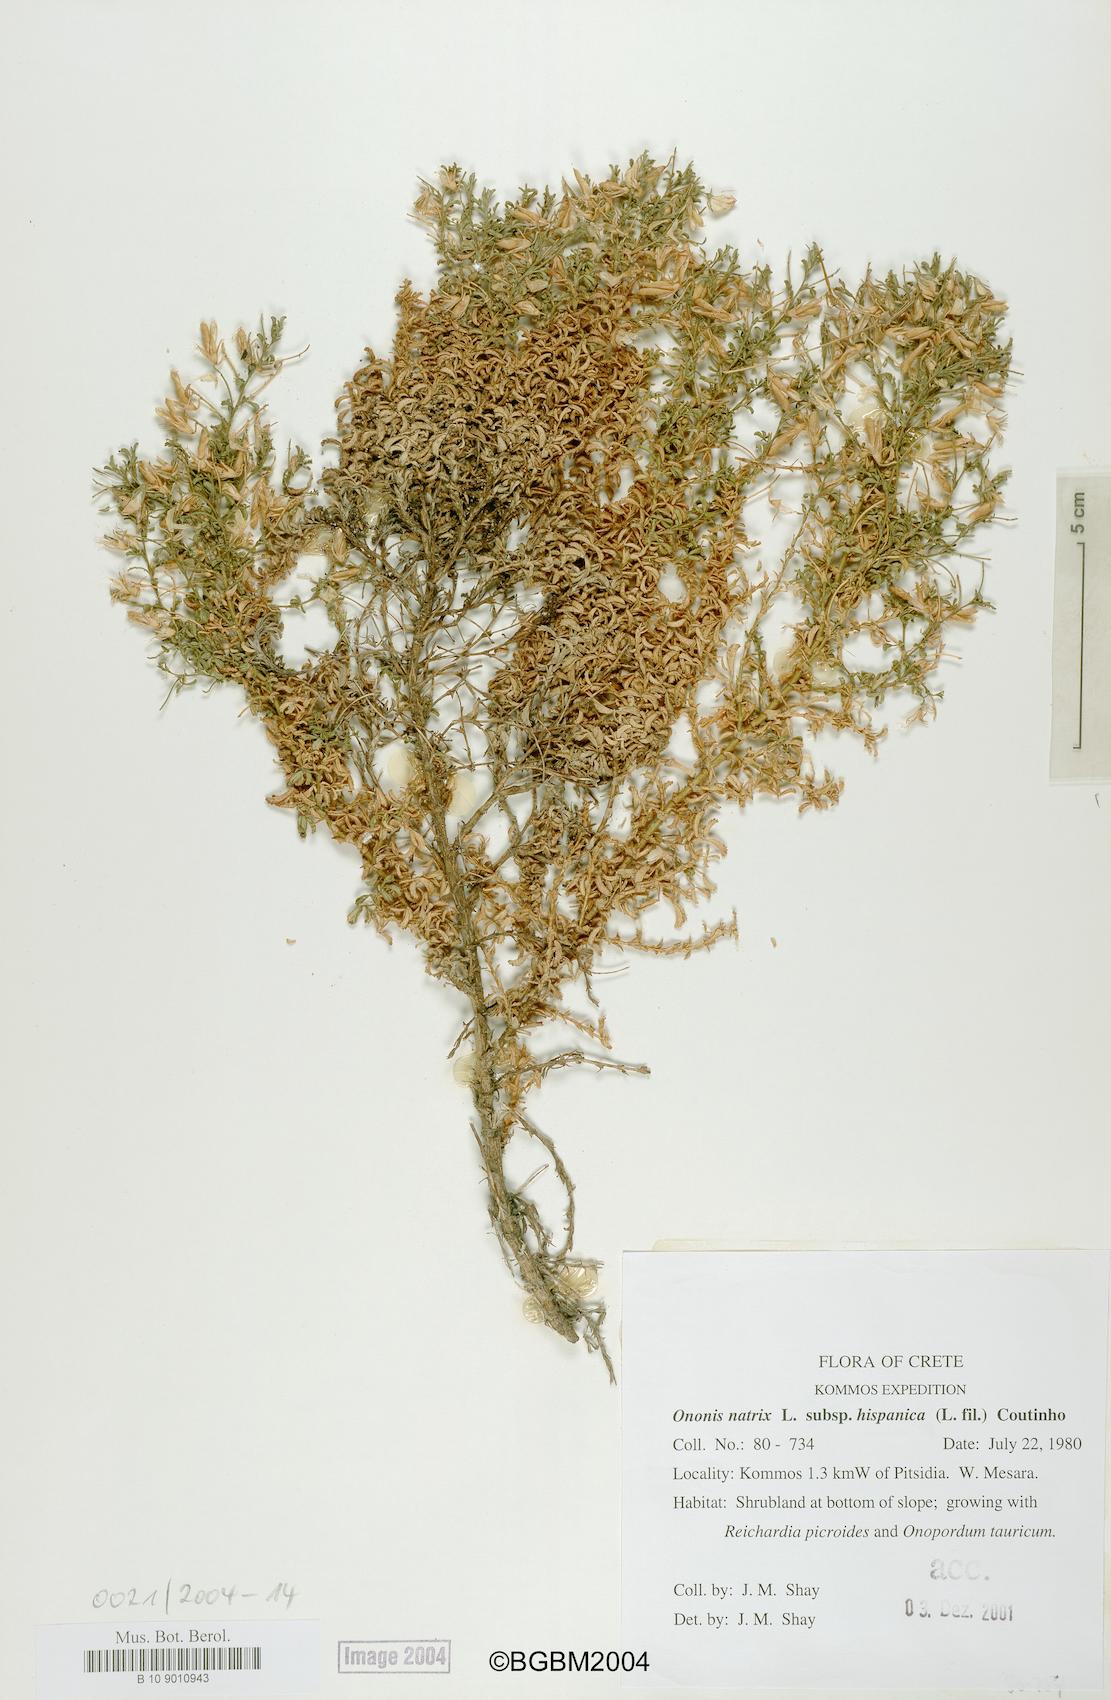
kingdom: Plantae
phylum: Tracheophyta
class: Magnoliopsida
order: Fabales
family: Fabaceae
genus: Ononis
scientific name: Ononis natrix
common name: Yellow restharrow
